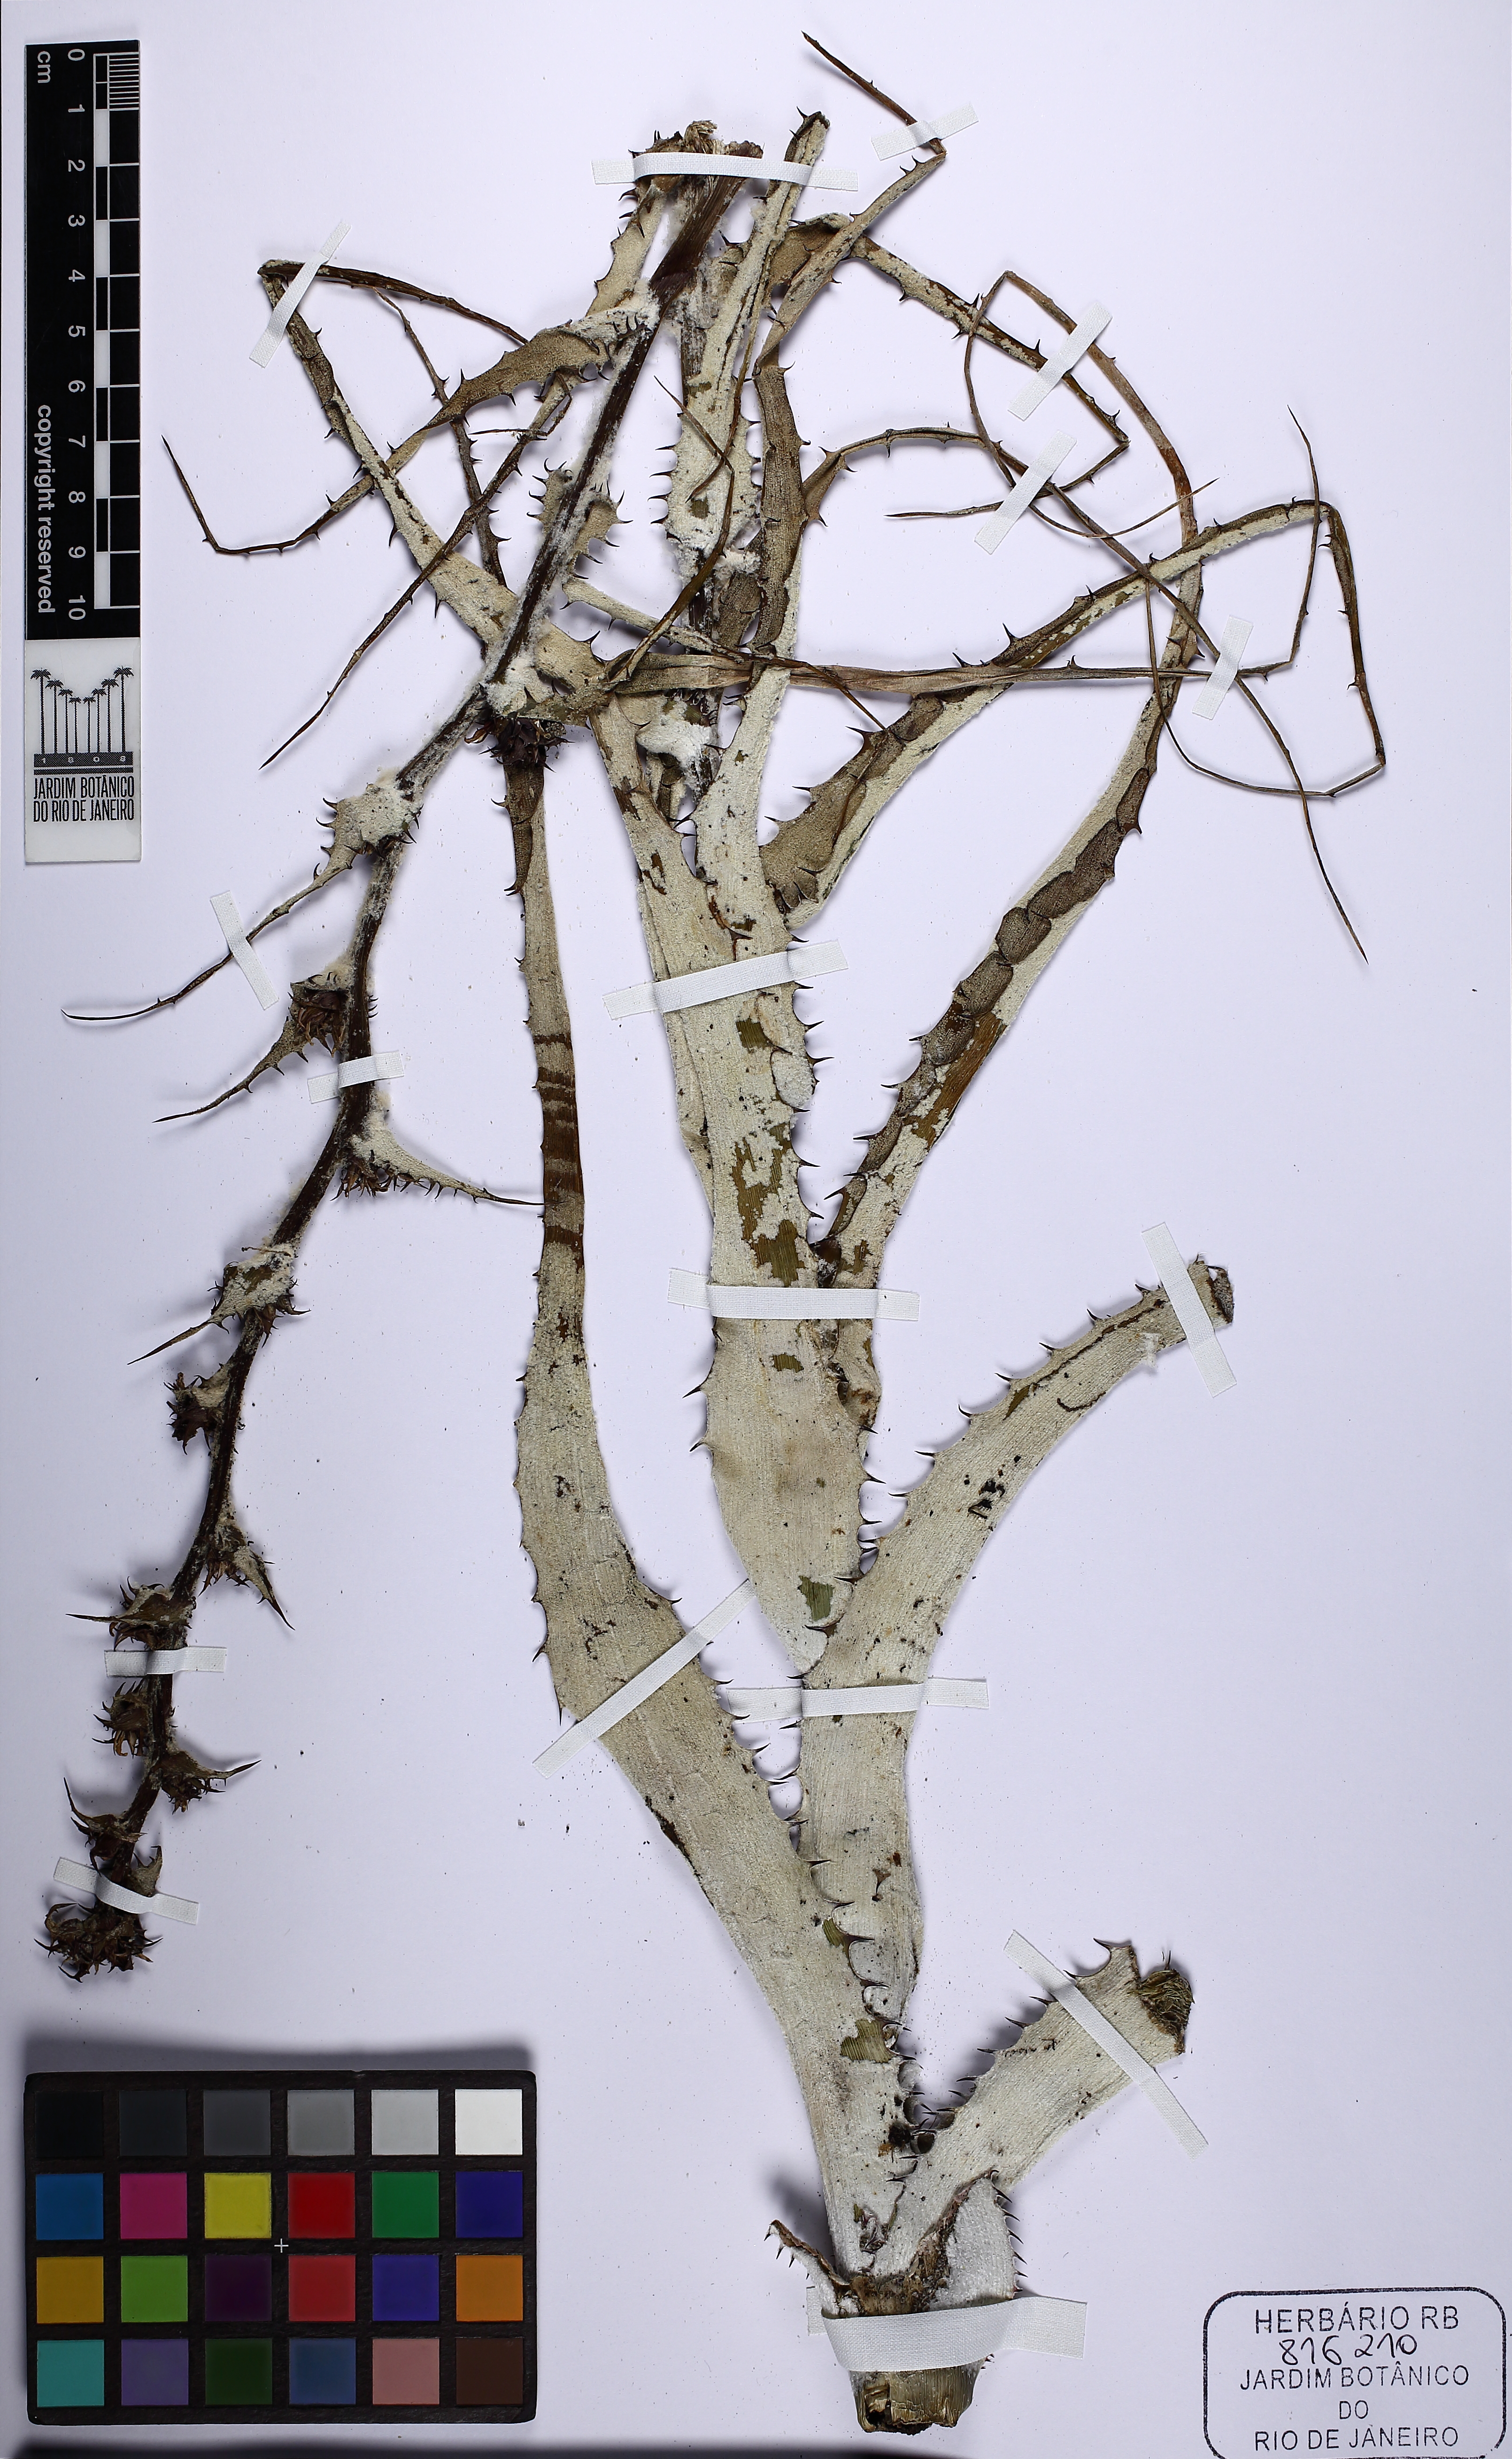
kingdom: Plantae
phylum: Tracheophyta
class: Liliopsida
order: Poales
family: Bromeliaceae
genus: Orthophytum
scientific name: Orthophytum
